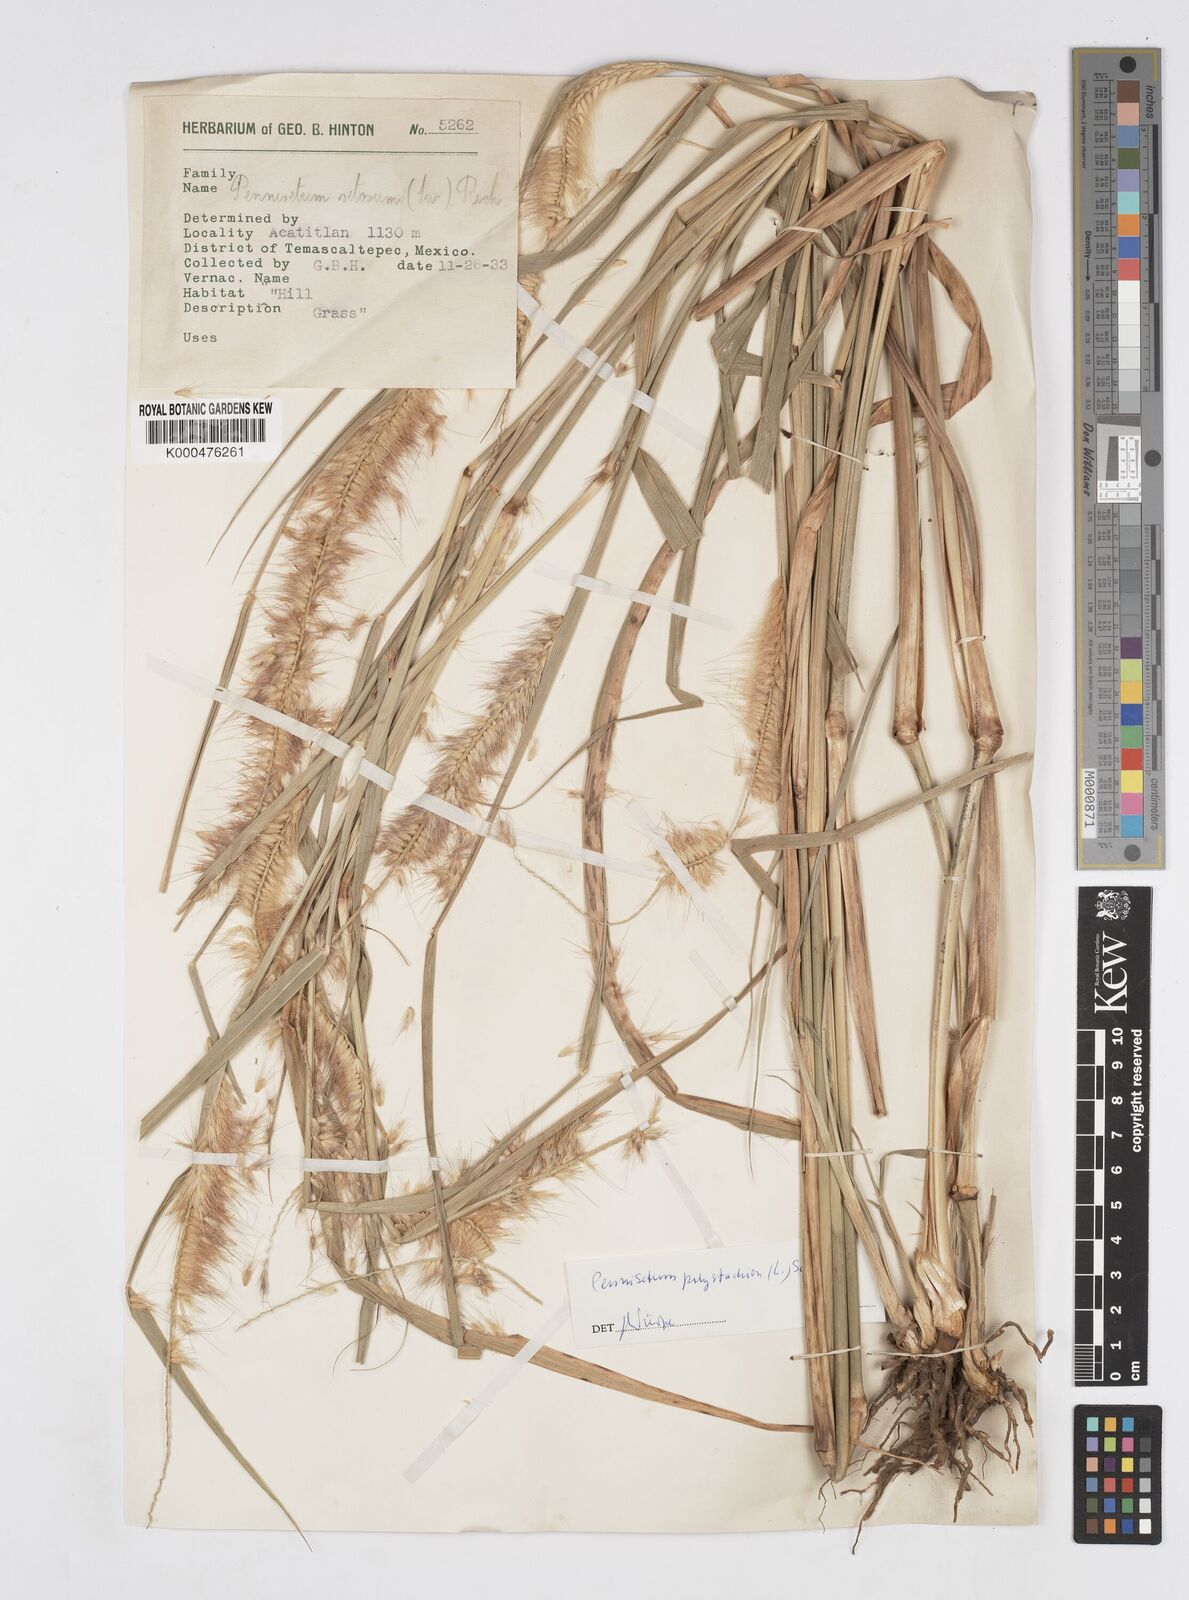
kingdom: Plantae
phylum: Tracheophyta
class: Liliopsida
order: Poales
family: Poaceae
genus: Setaria
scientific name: Setaria parviflora
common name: Knotroot bristle-grass
